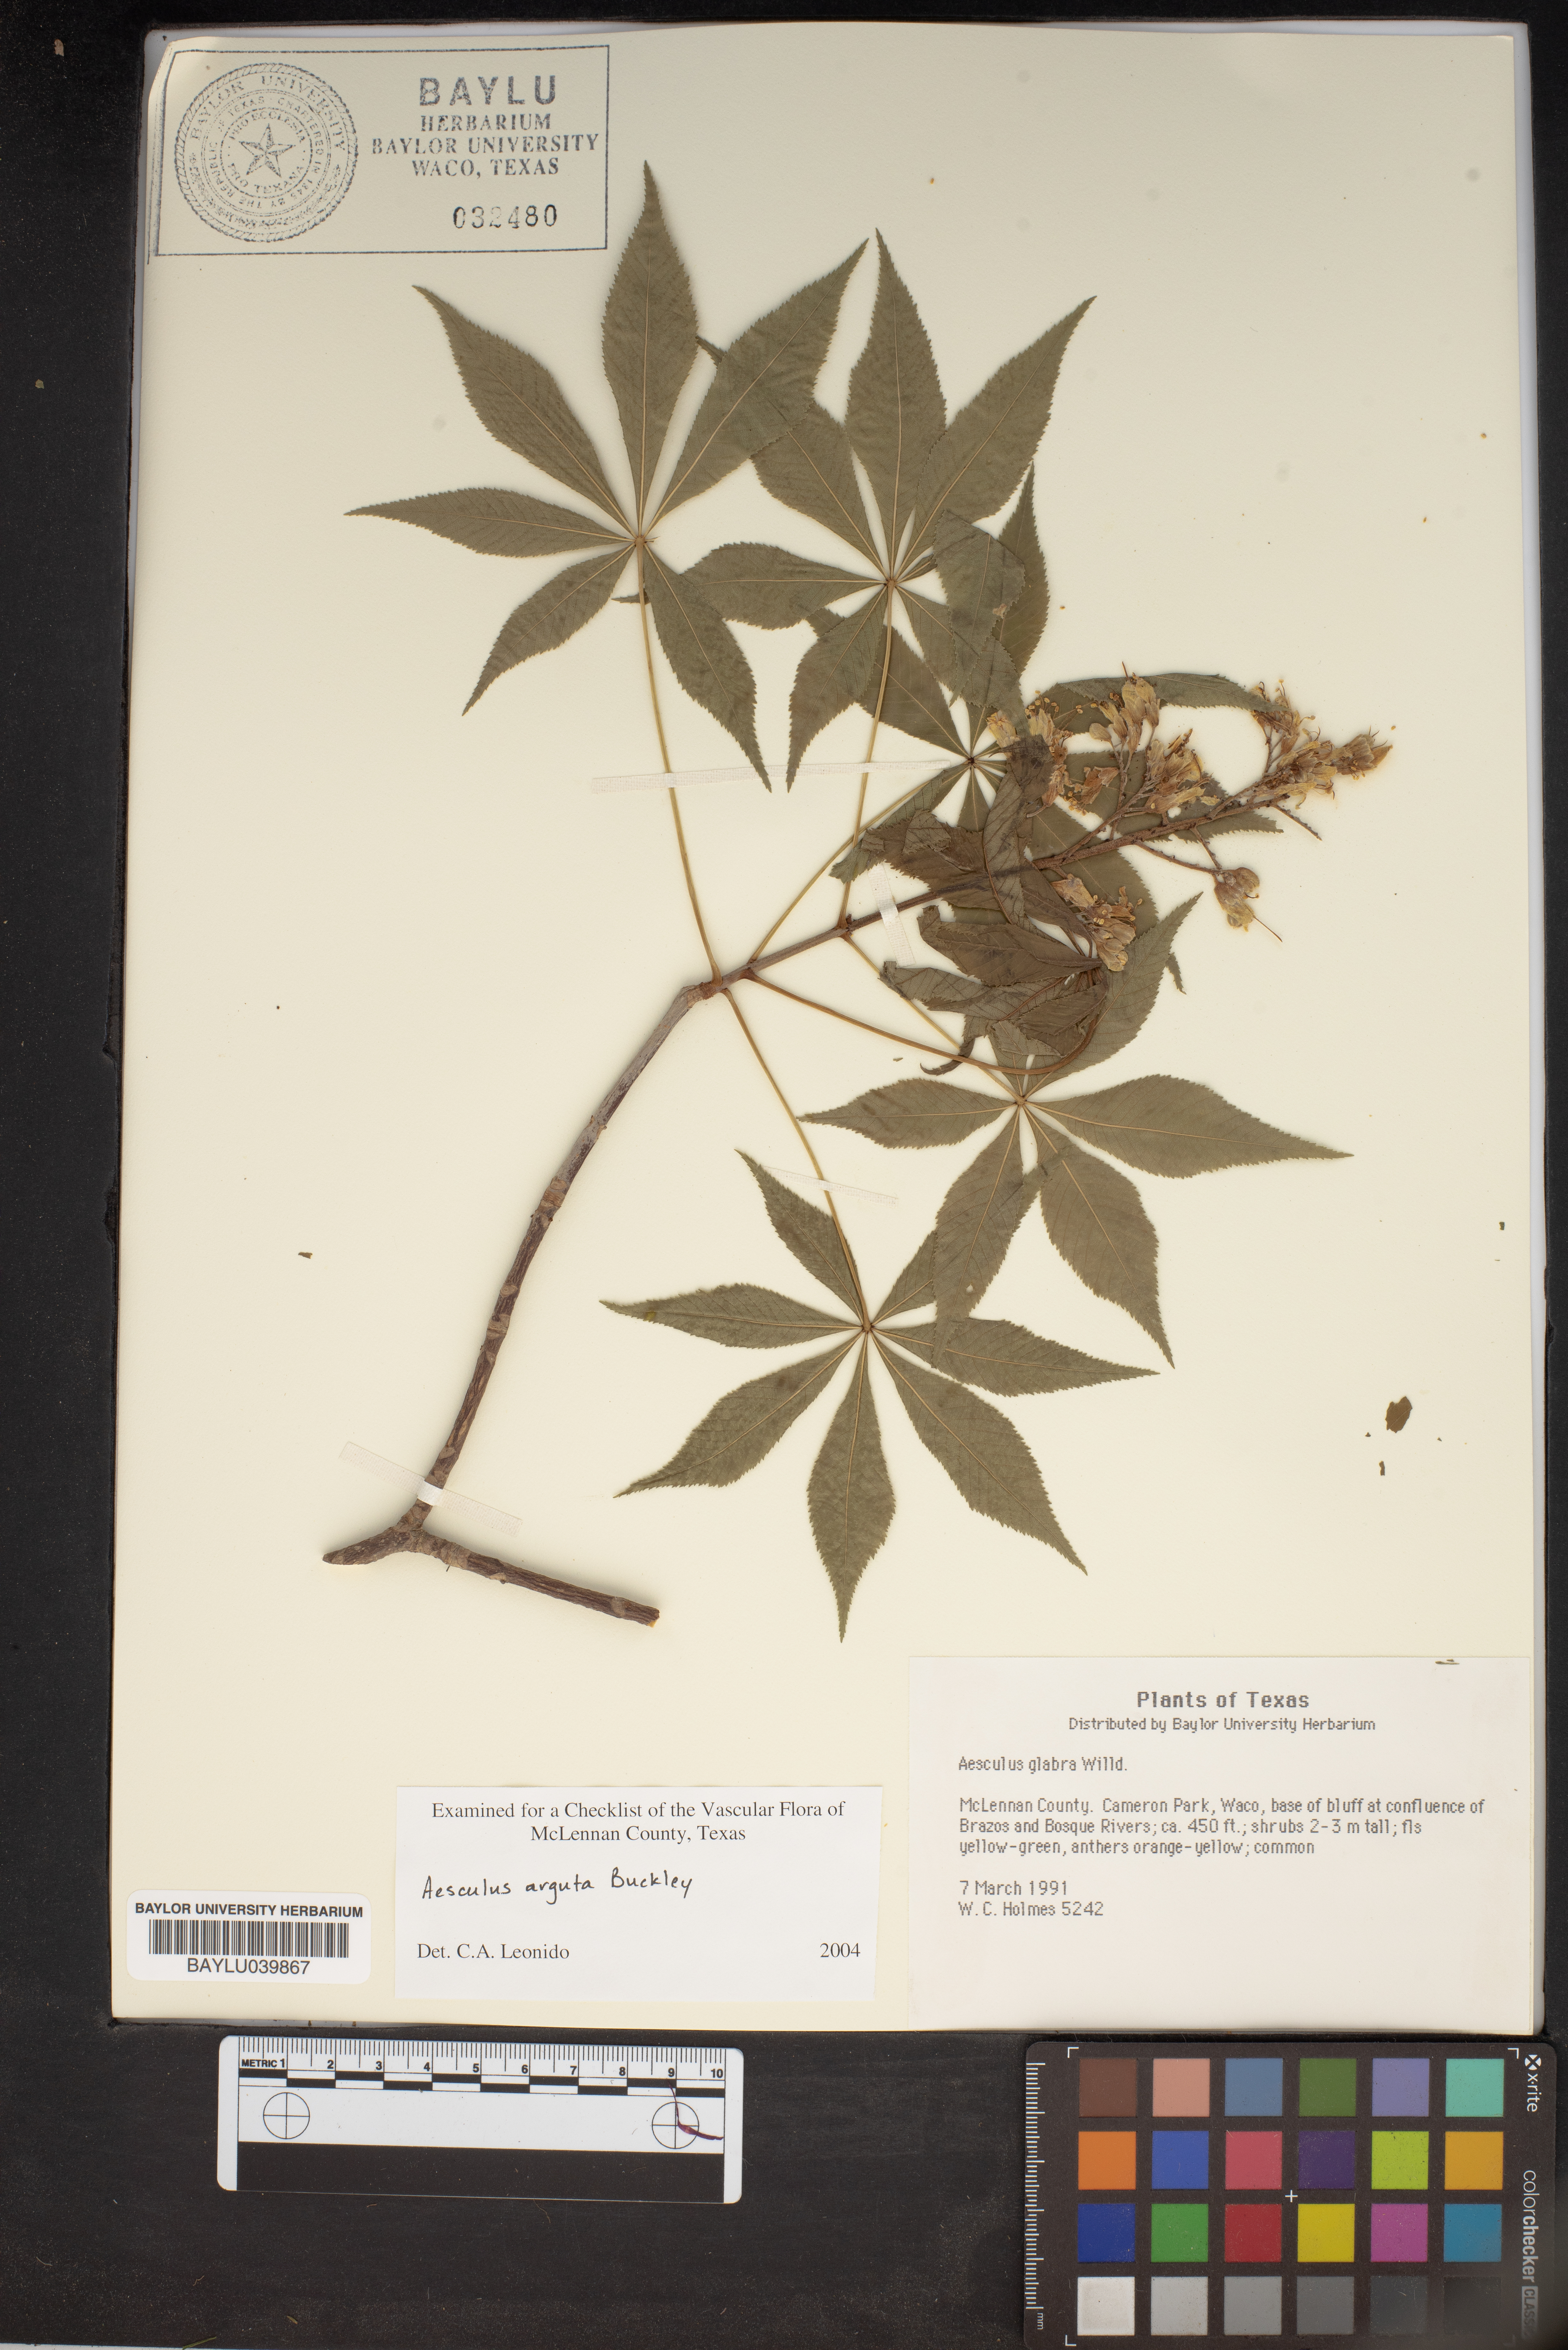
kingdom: Plantae
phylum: Tracheophyta
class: Magnoliopsida
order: Sapindales
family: Sapindaceae
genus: Aesculus
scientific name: Aesculus glabra
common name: Ohio buckeye
